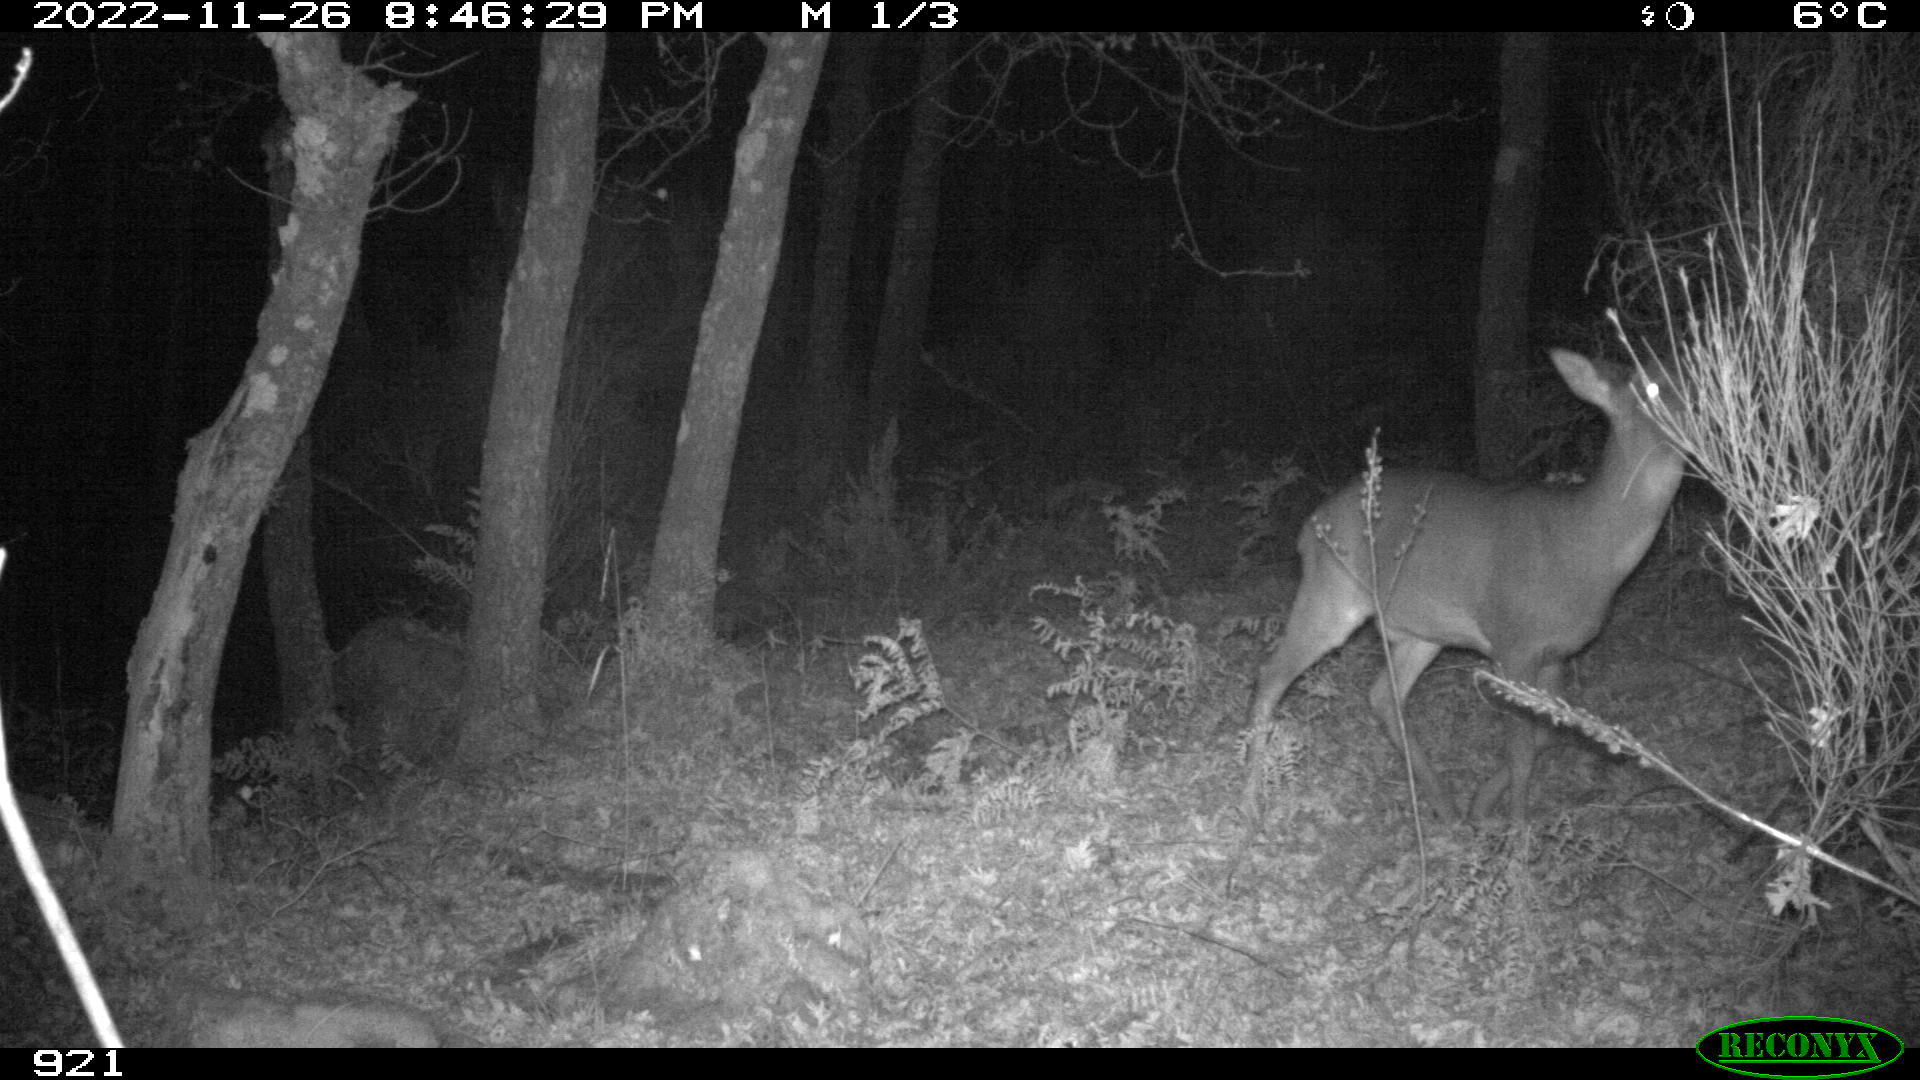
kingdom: Animalia
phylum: Chordata
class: Mammalia
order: Artiodactyla
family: Cervidae
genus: Capreolus
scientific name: Capreolus capreolus
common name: Western roe deer
